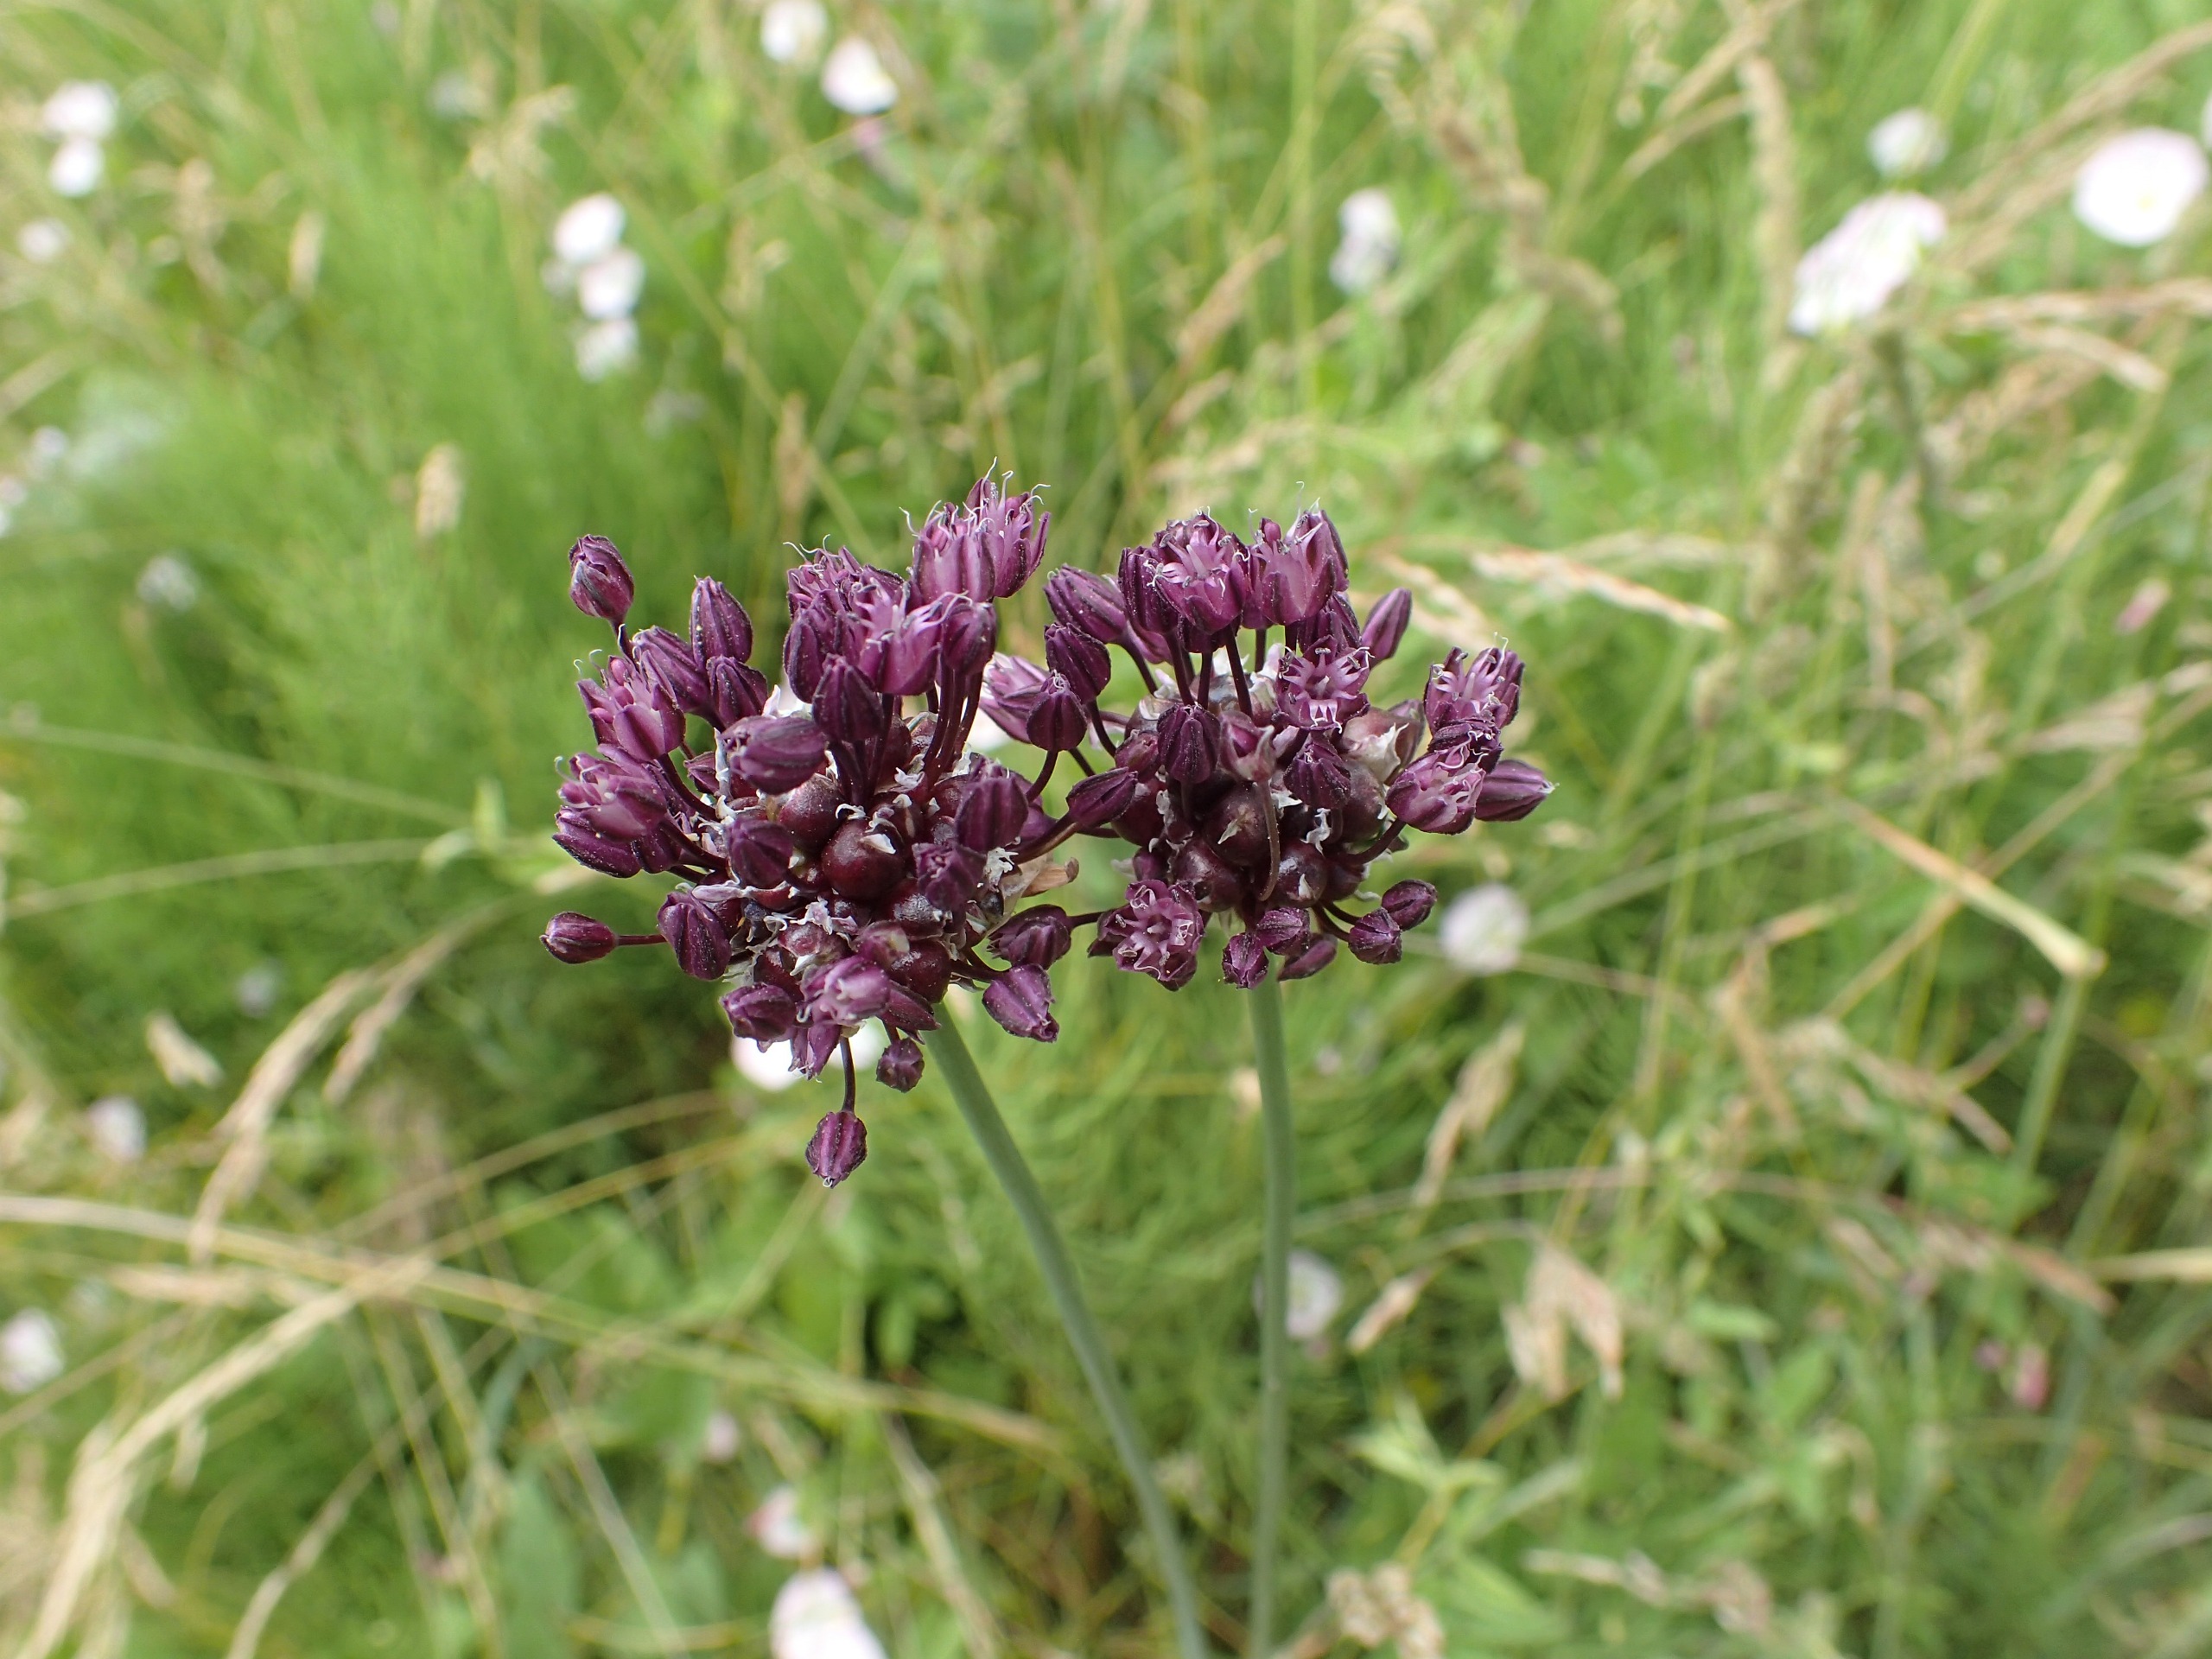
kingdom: Plantae
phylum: Tracheophyta
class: Liliopsida
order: Asparagales
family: Amaryllidaceae
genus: Allium
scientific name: Allium scorodoprasum
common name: Skov-løg
